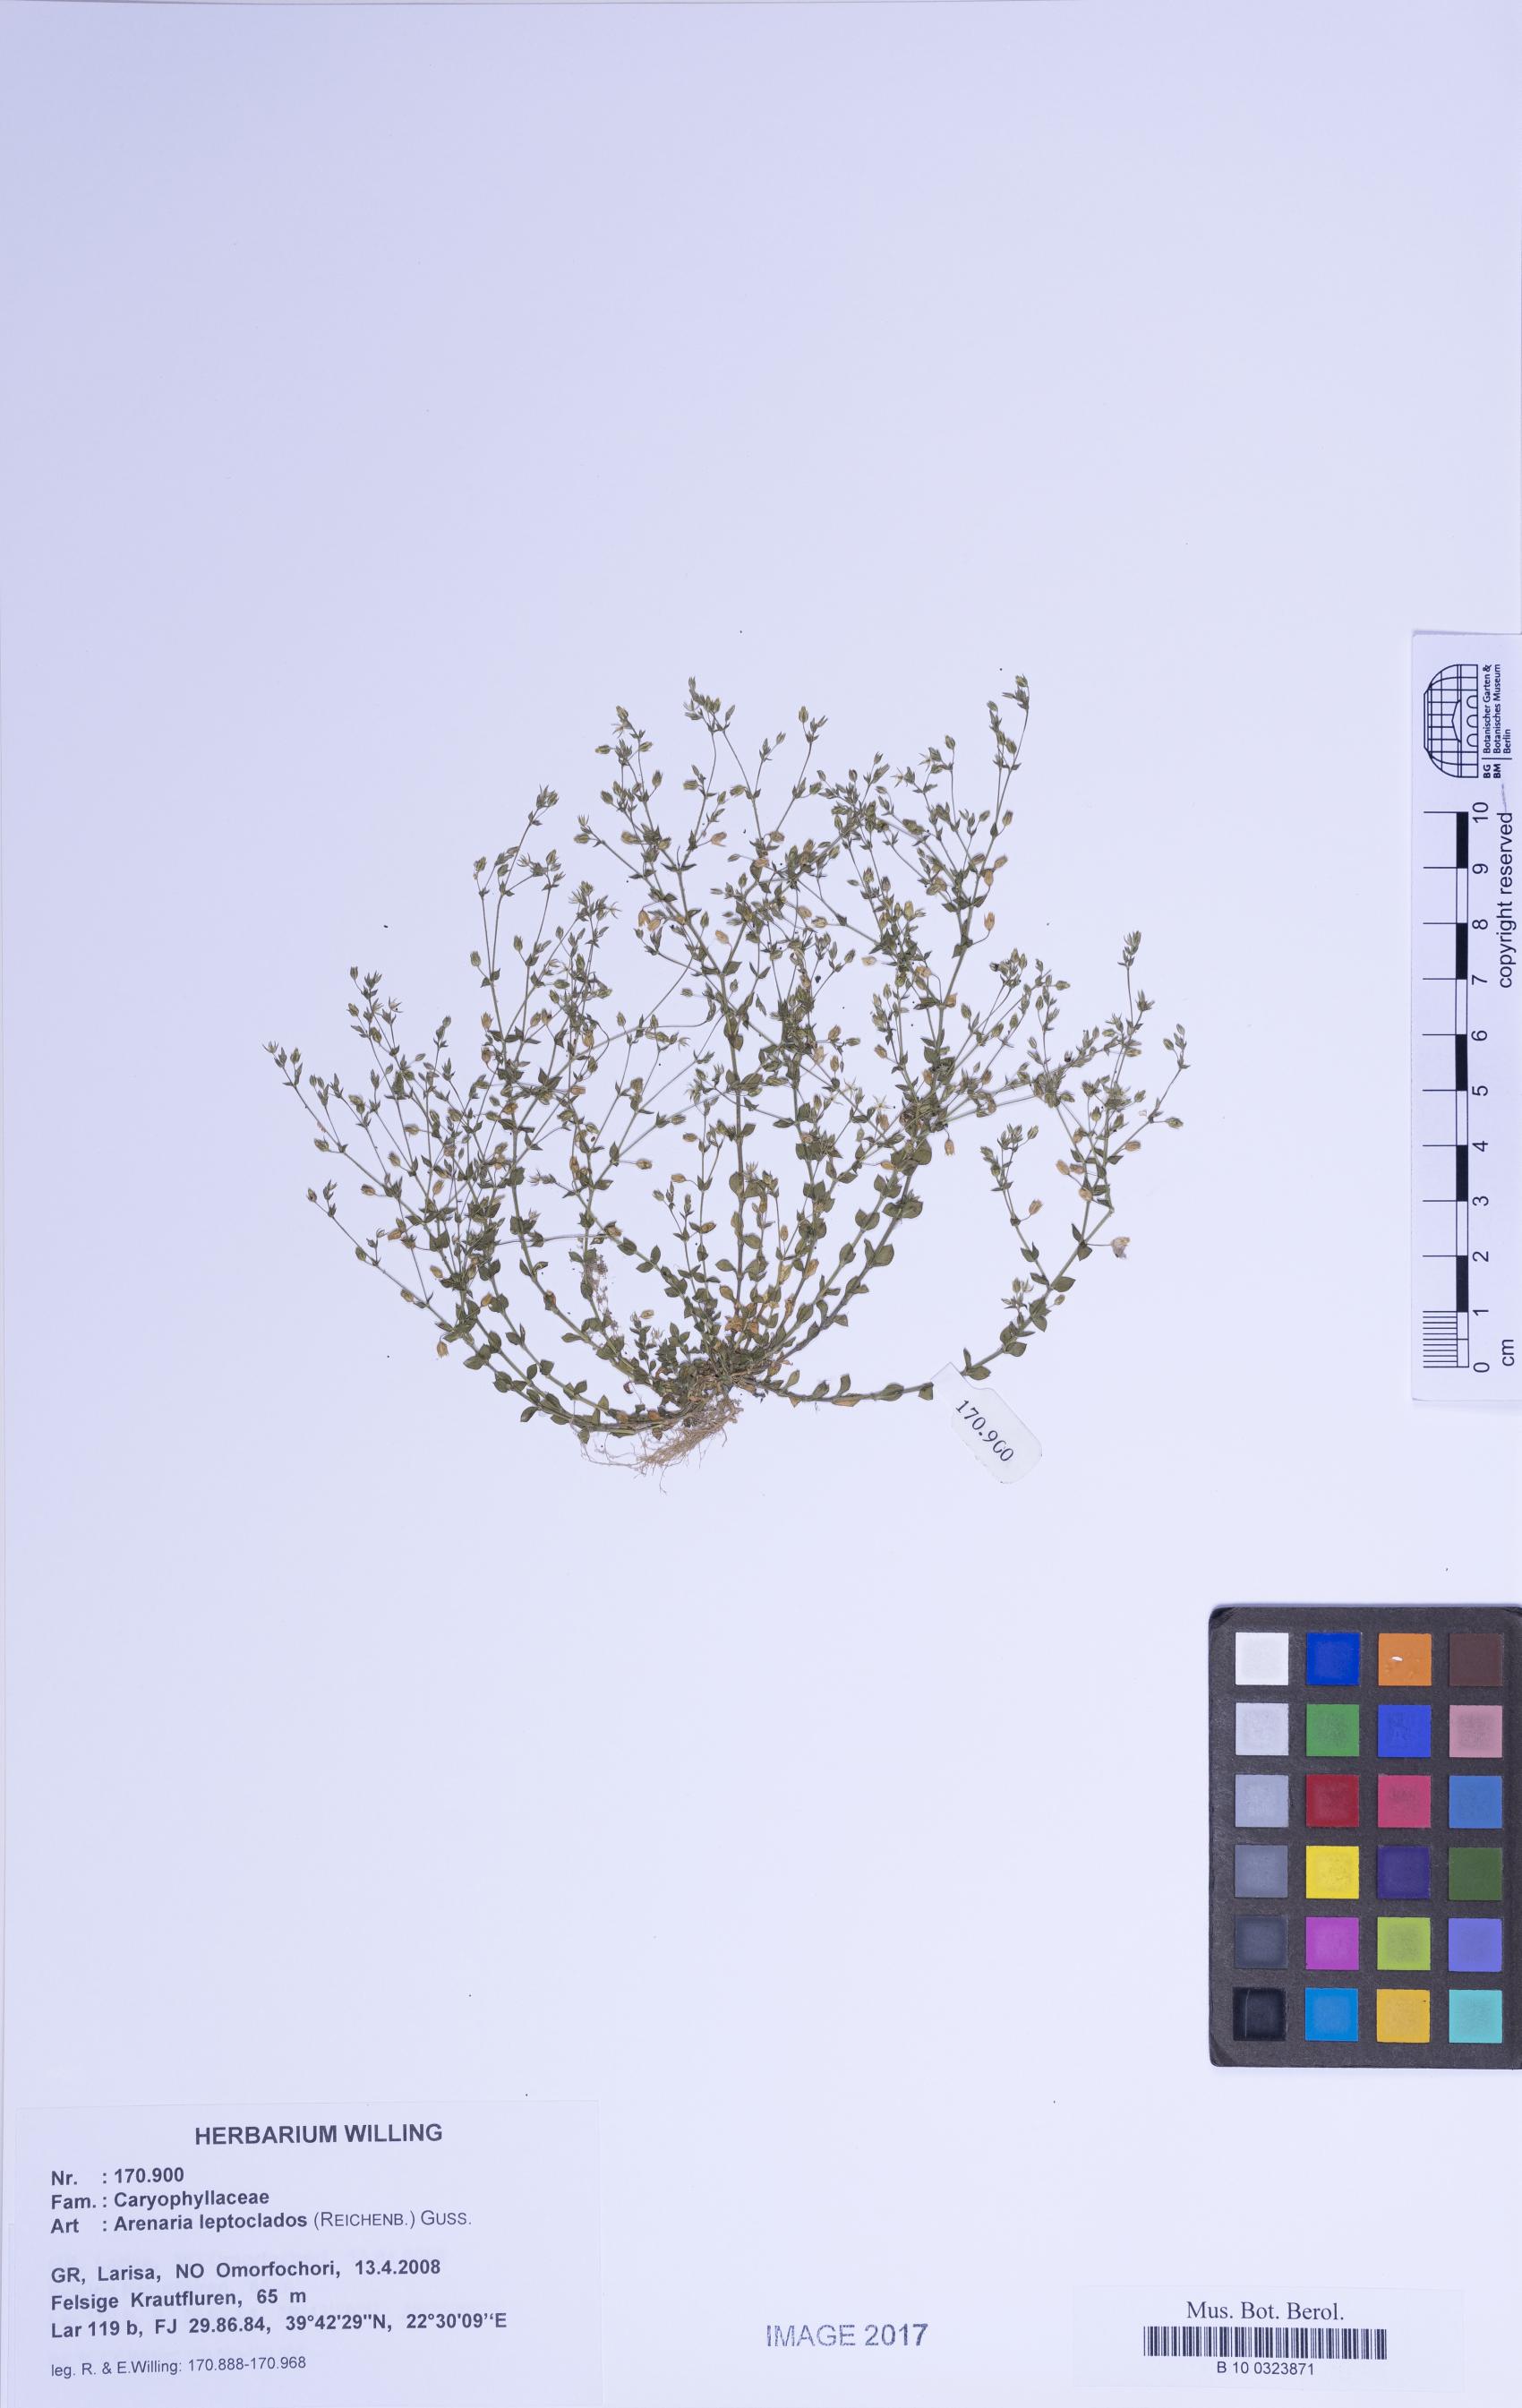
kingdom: Plantae
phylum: Tracheophyta
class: Magnoliopsida
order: Caryophyllales
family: Caryophyllaceae
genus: Arenaria
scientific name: Arenaria leptoclados
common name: Thyme-leaved sandwort
